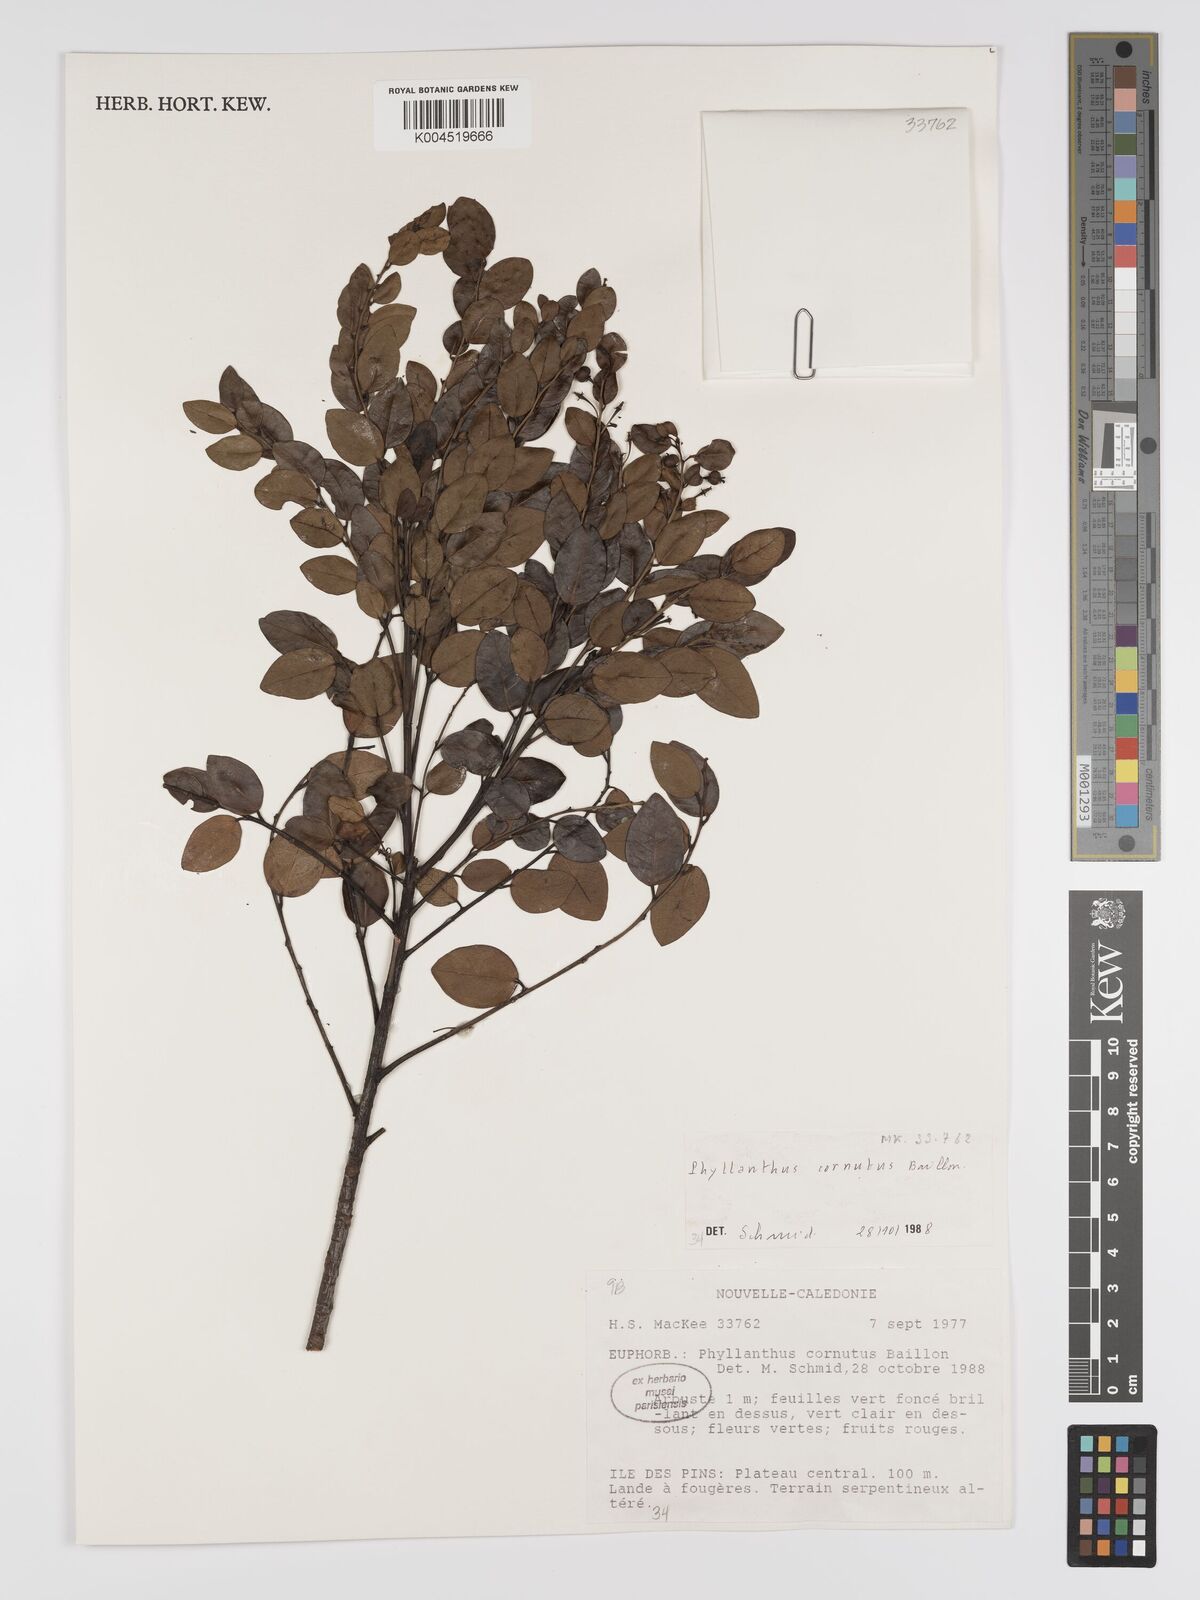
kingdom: Plantae
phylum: Tracheophyta
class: Magnoliopsida
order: Malpighiales
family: Phyllanthaceae
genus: Phyllanthus
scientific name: Phyllanthus cornutus
